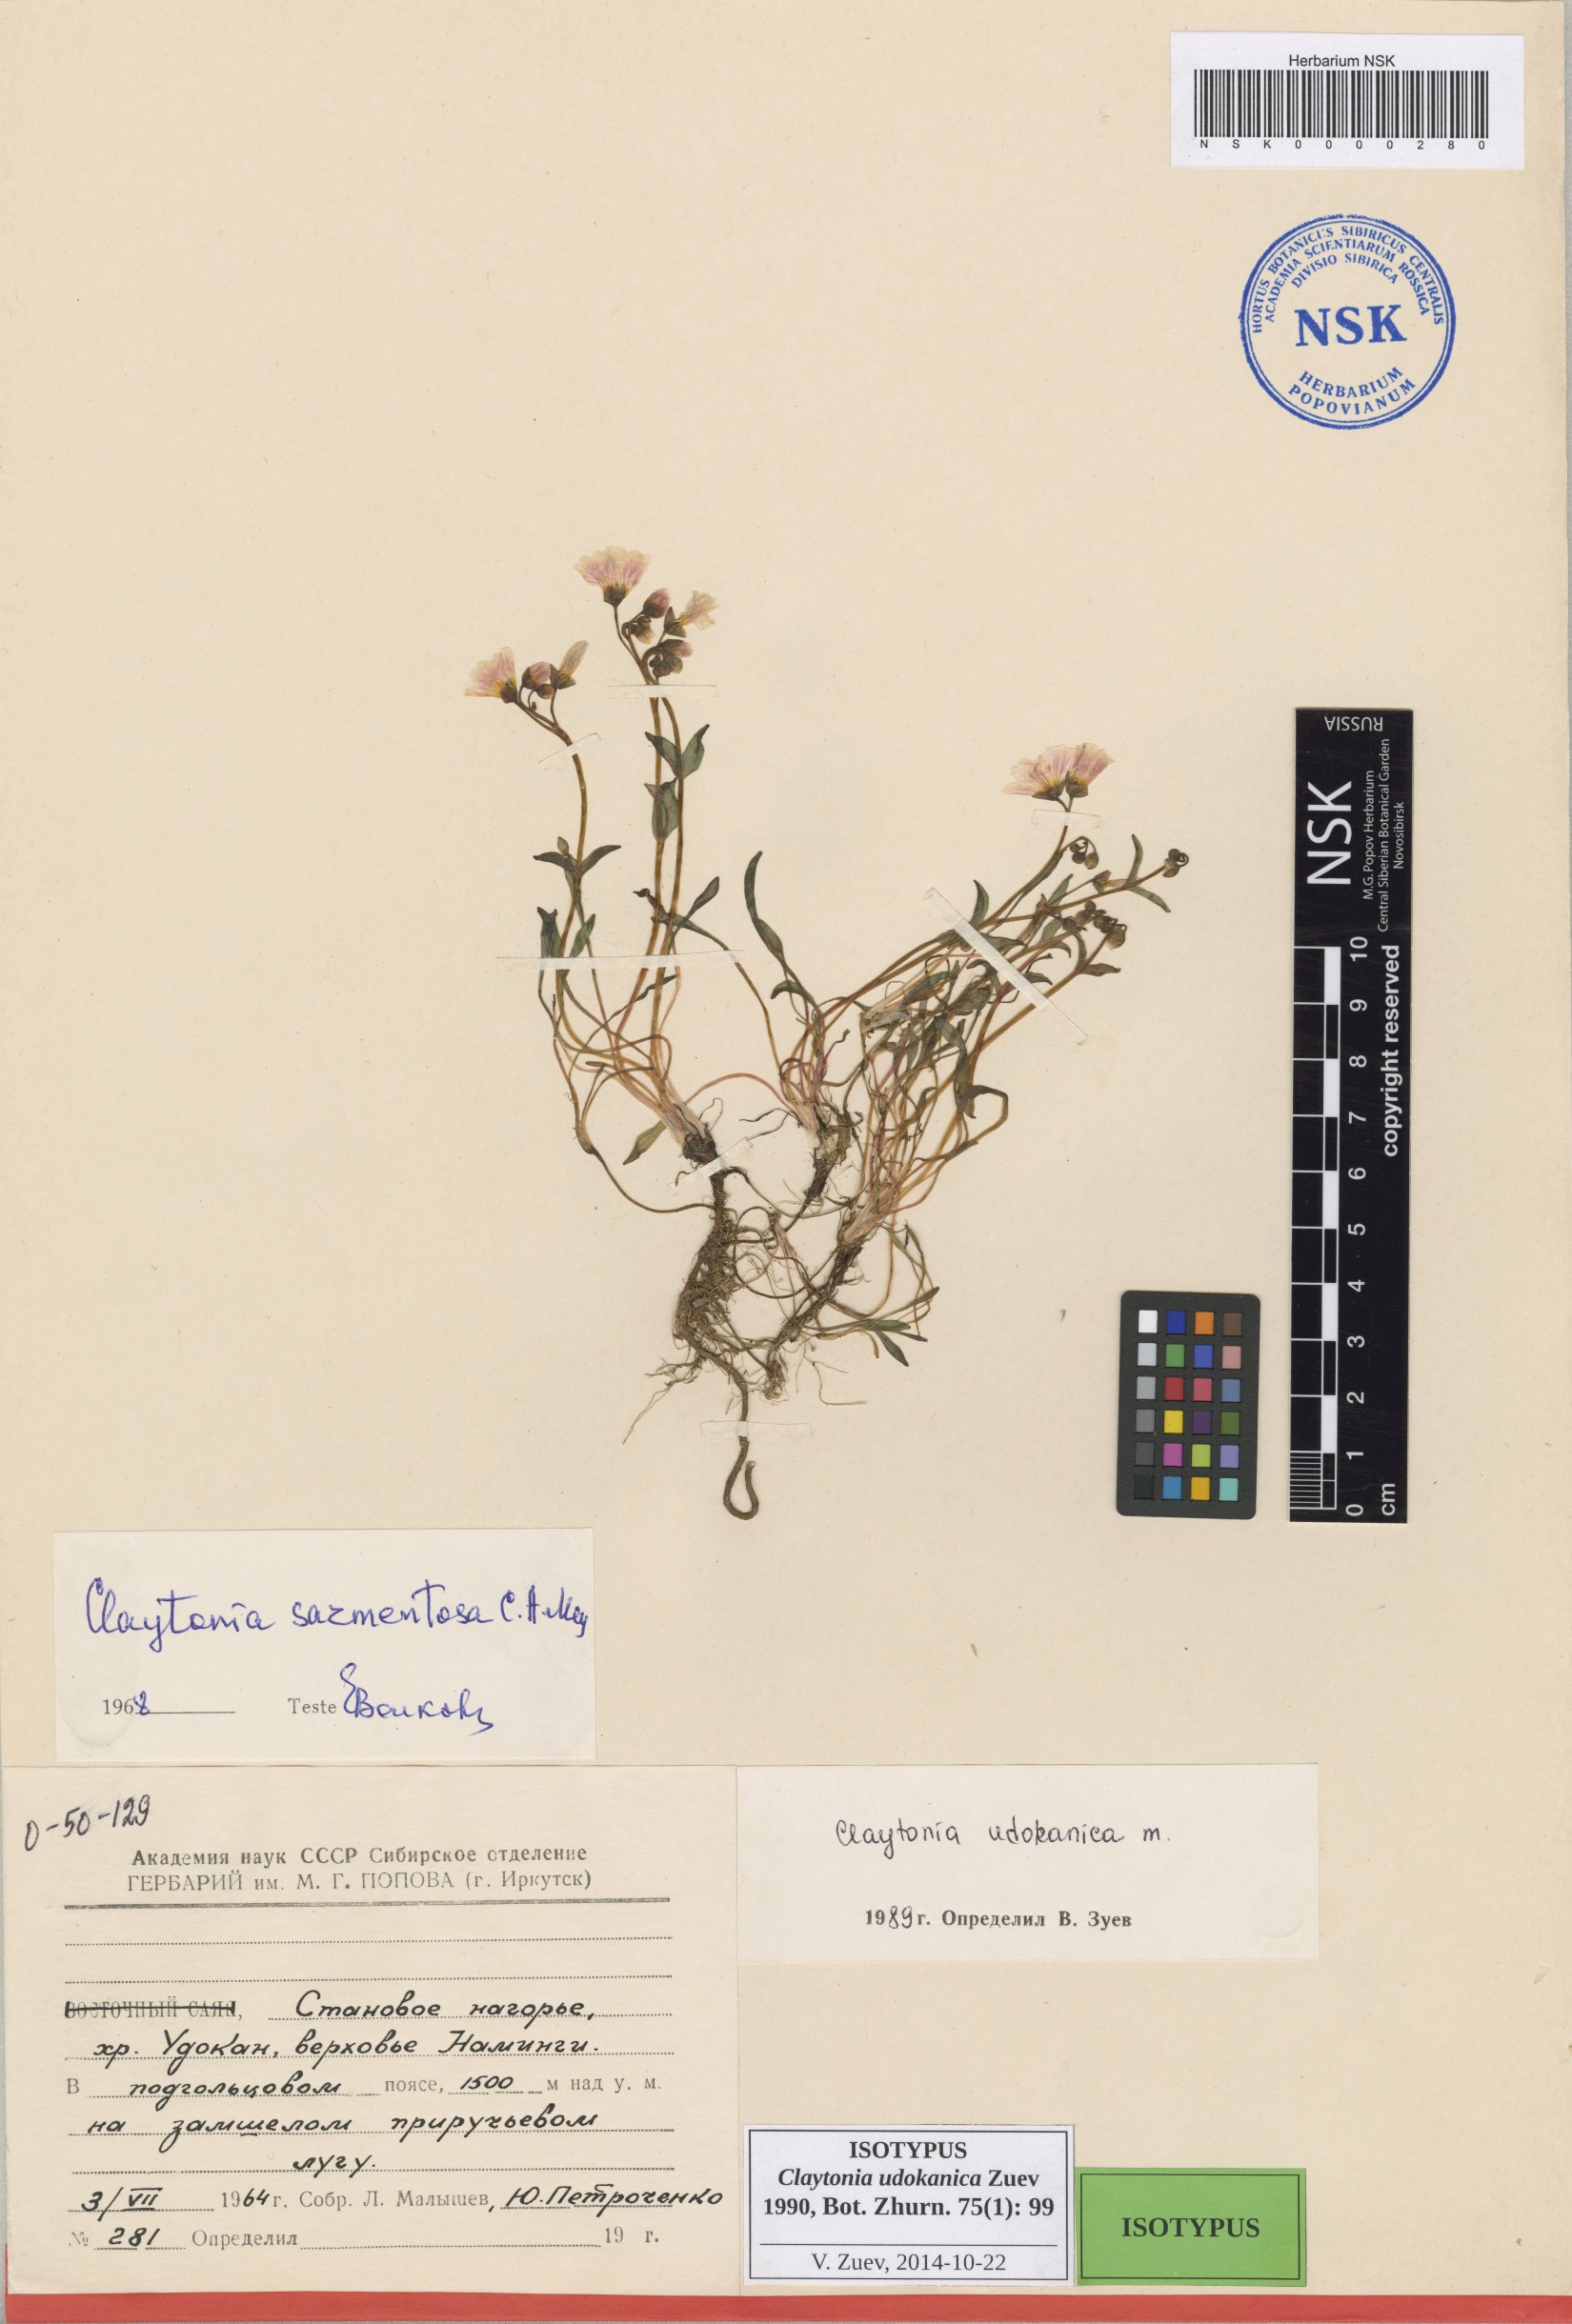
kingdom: Plantae
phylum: Tracheophyta
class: Magnoliopsida
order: Caryophyllales
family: Montiaceae
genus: Claytonia
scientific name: Claytonia udokanica
